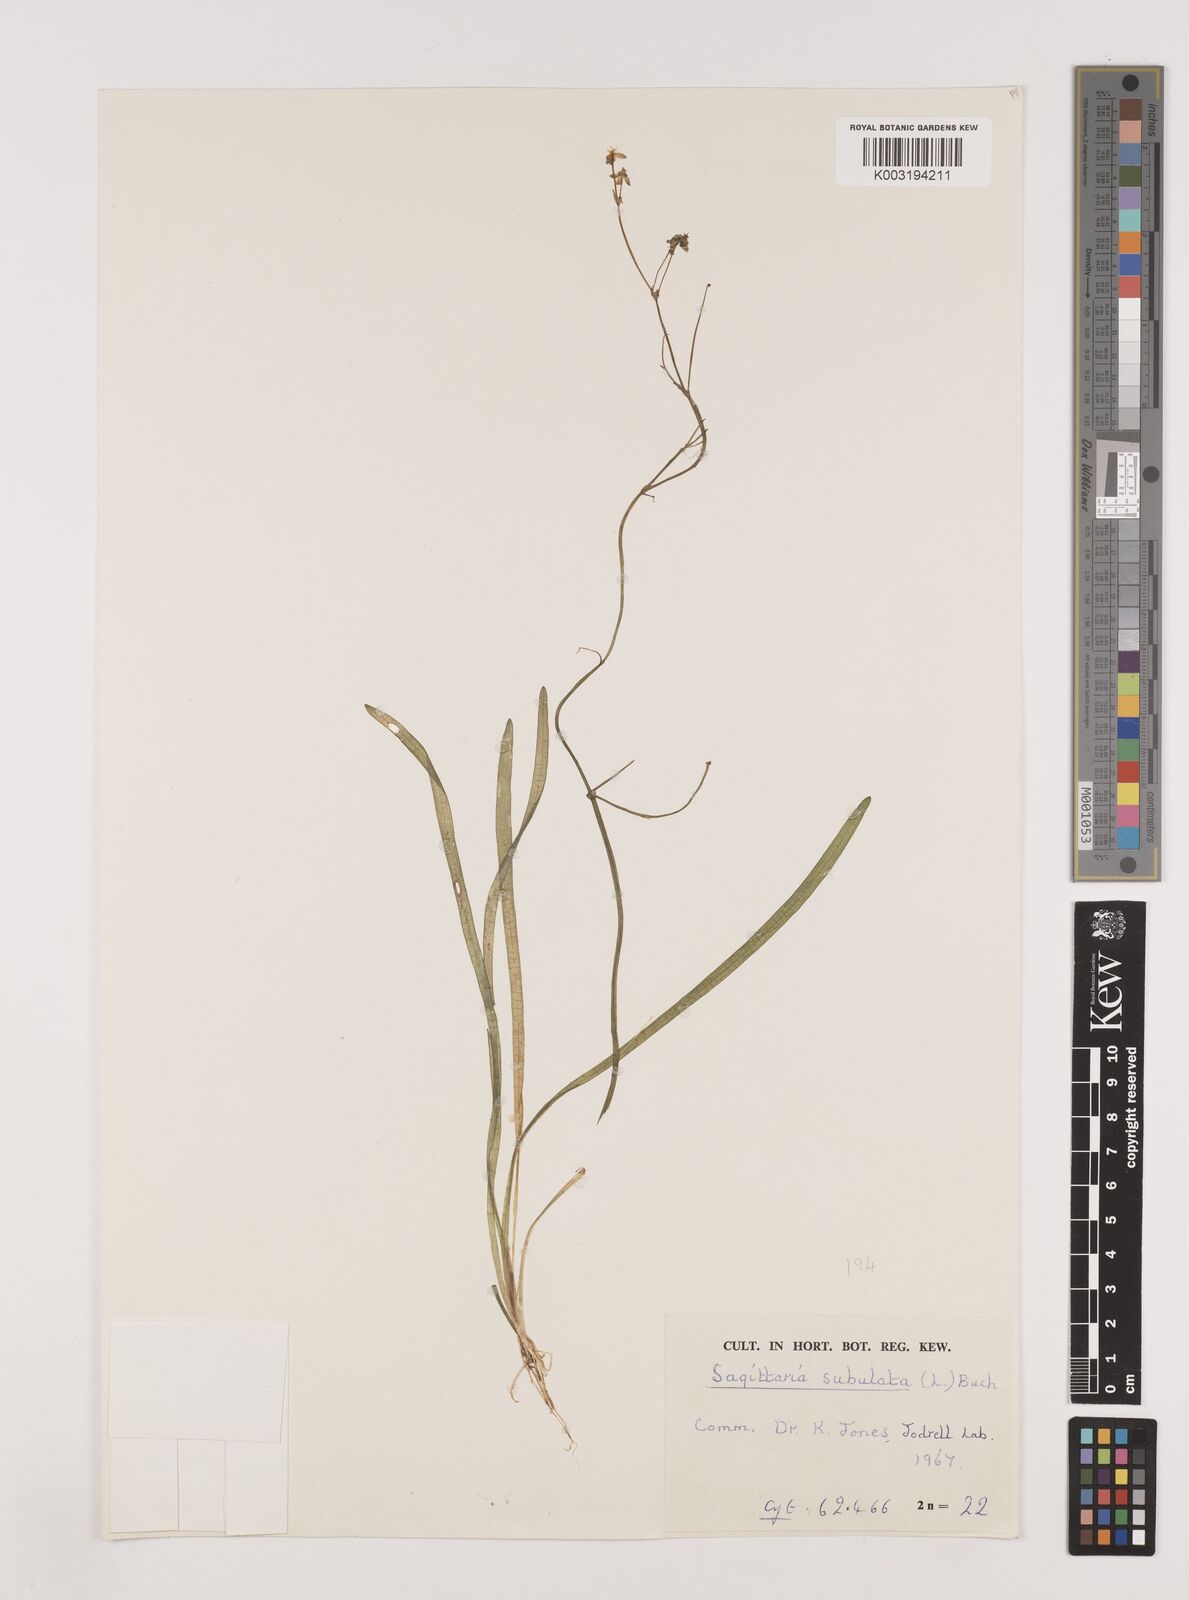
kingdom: Plantae
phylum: Tracheophyta
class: Liliopsida
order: Alismatales
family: Alismataceae
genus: Sagittaria
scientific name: Sagittaria subulata
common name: Narrow-leaved arrowhead
